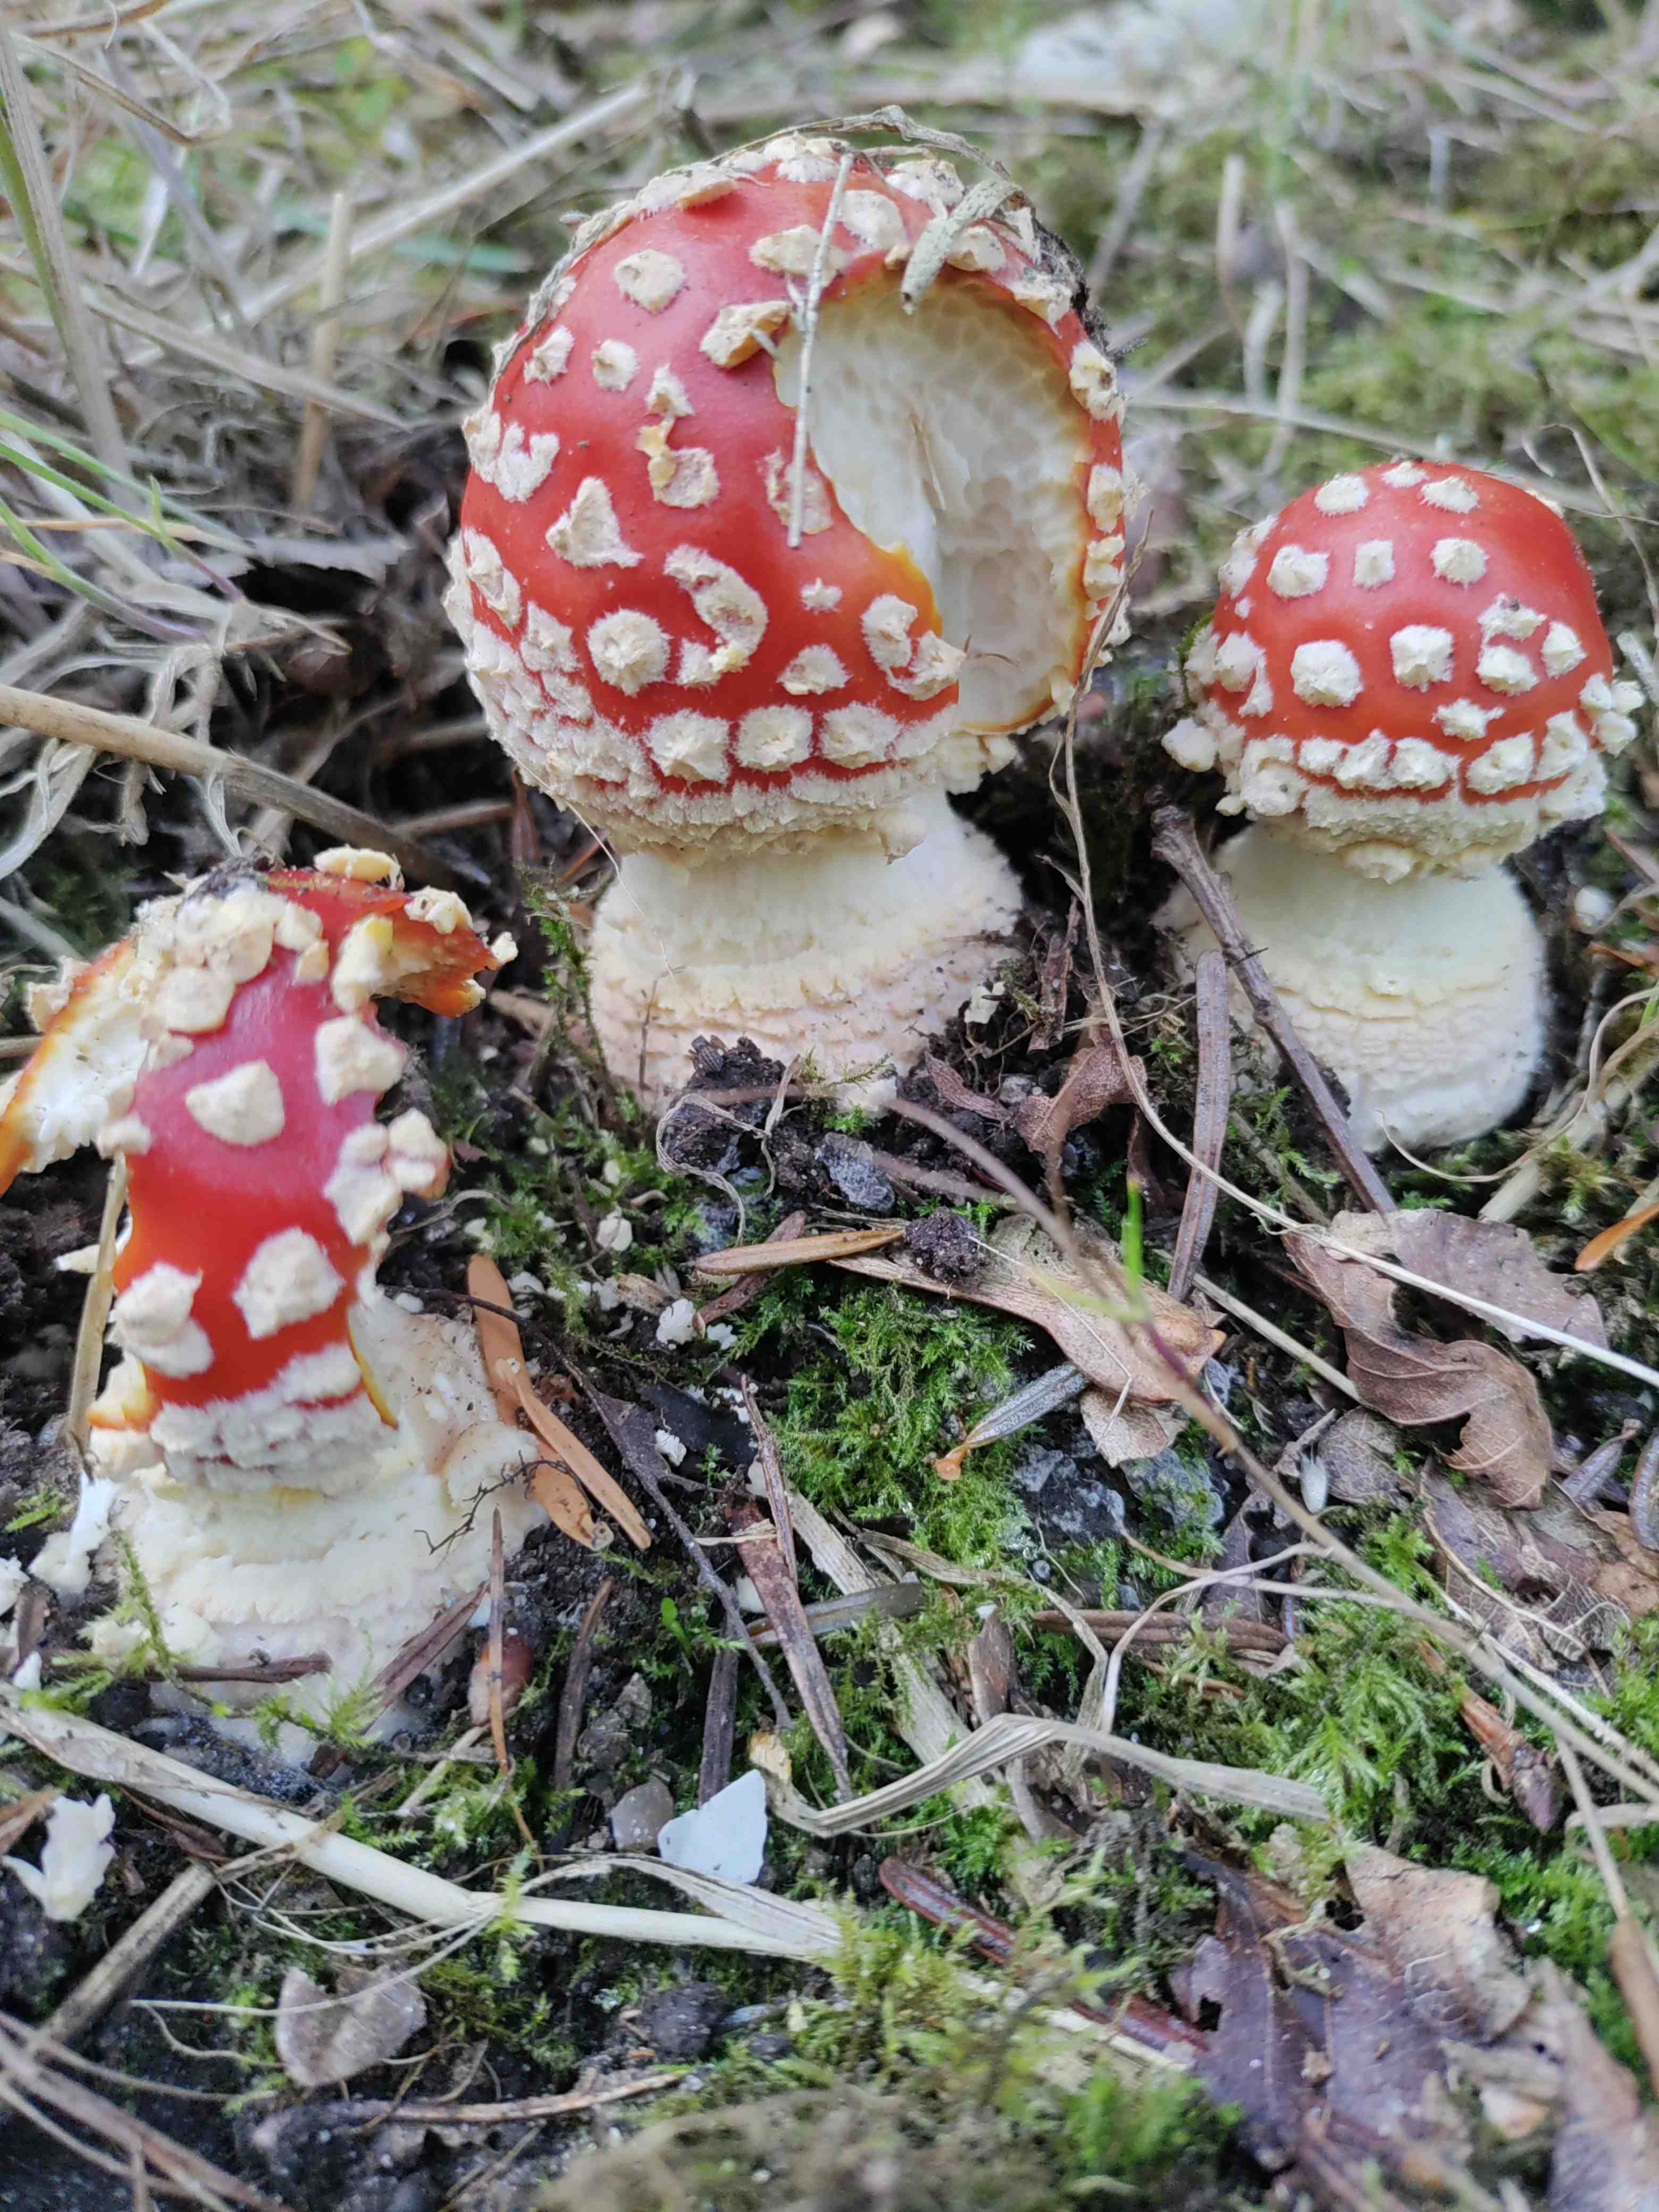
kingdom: Fungi
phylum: Basidiomycota
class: Agaricomycetes
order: Agaricales
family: Amanitaceae
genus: Amanita
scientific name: Amanita muscaria
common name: rød fluesvamp
